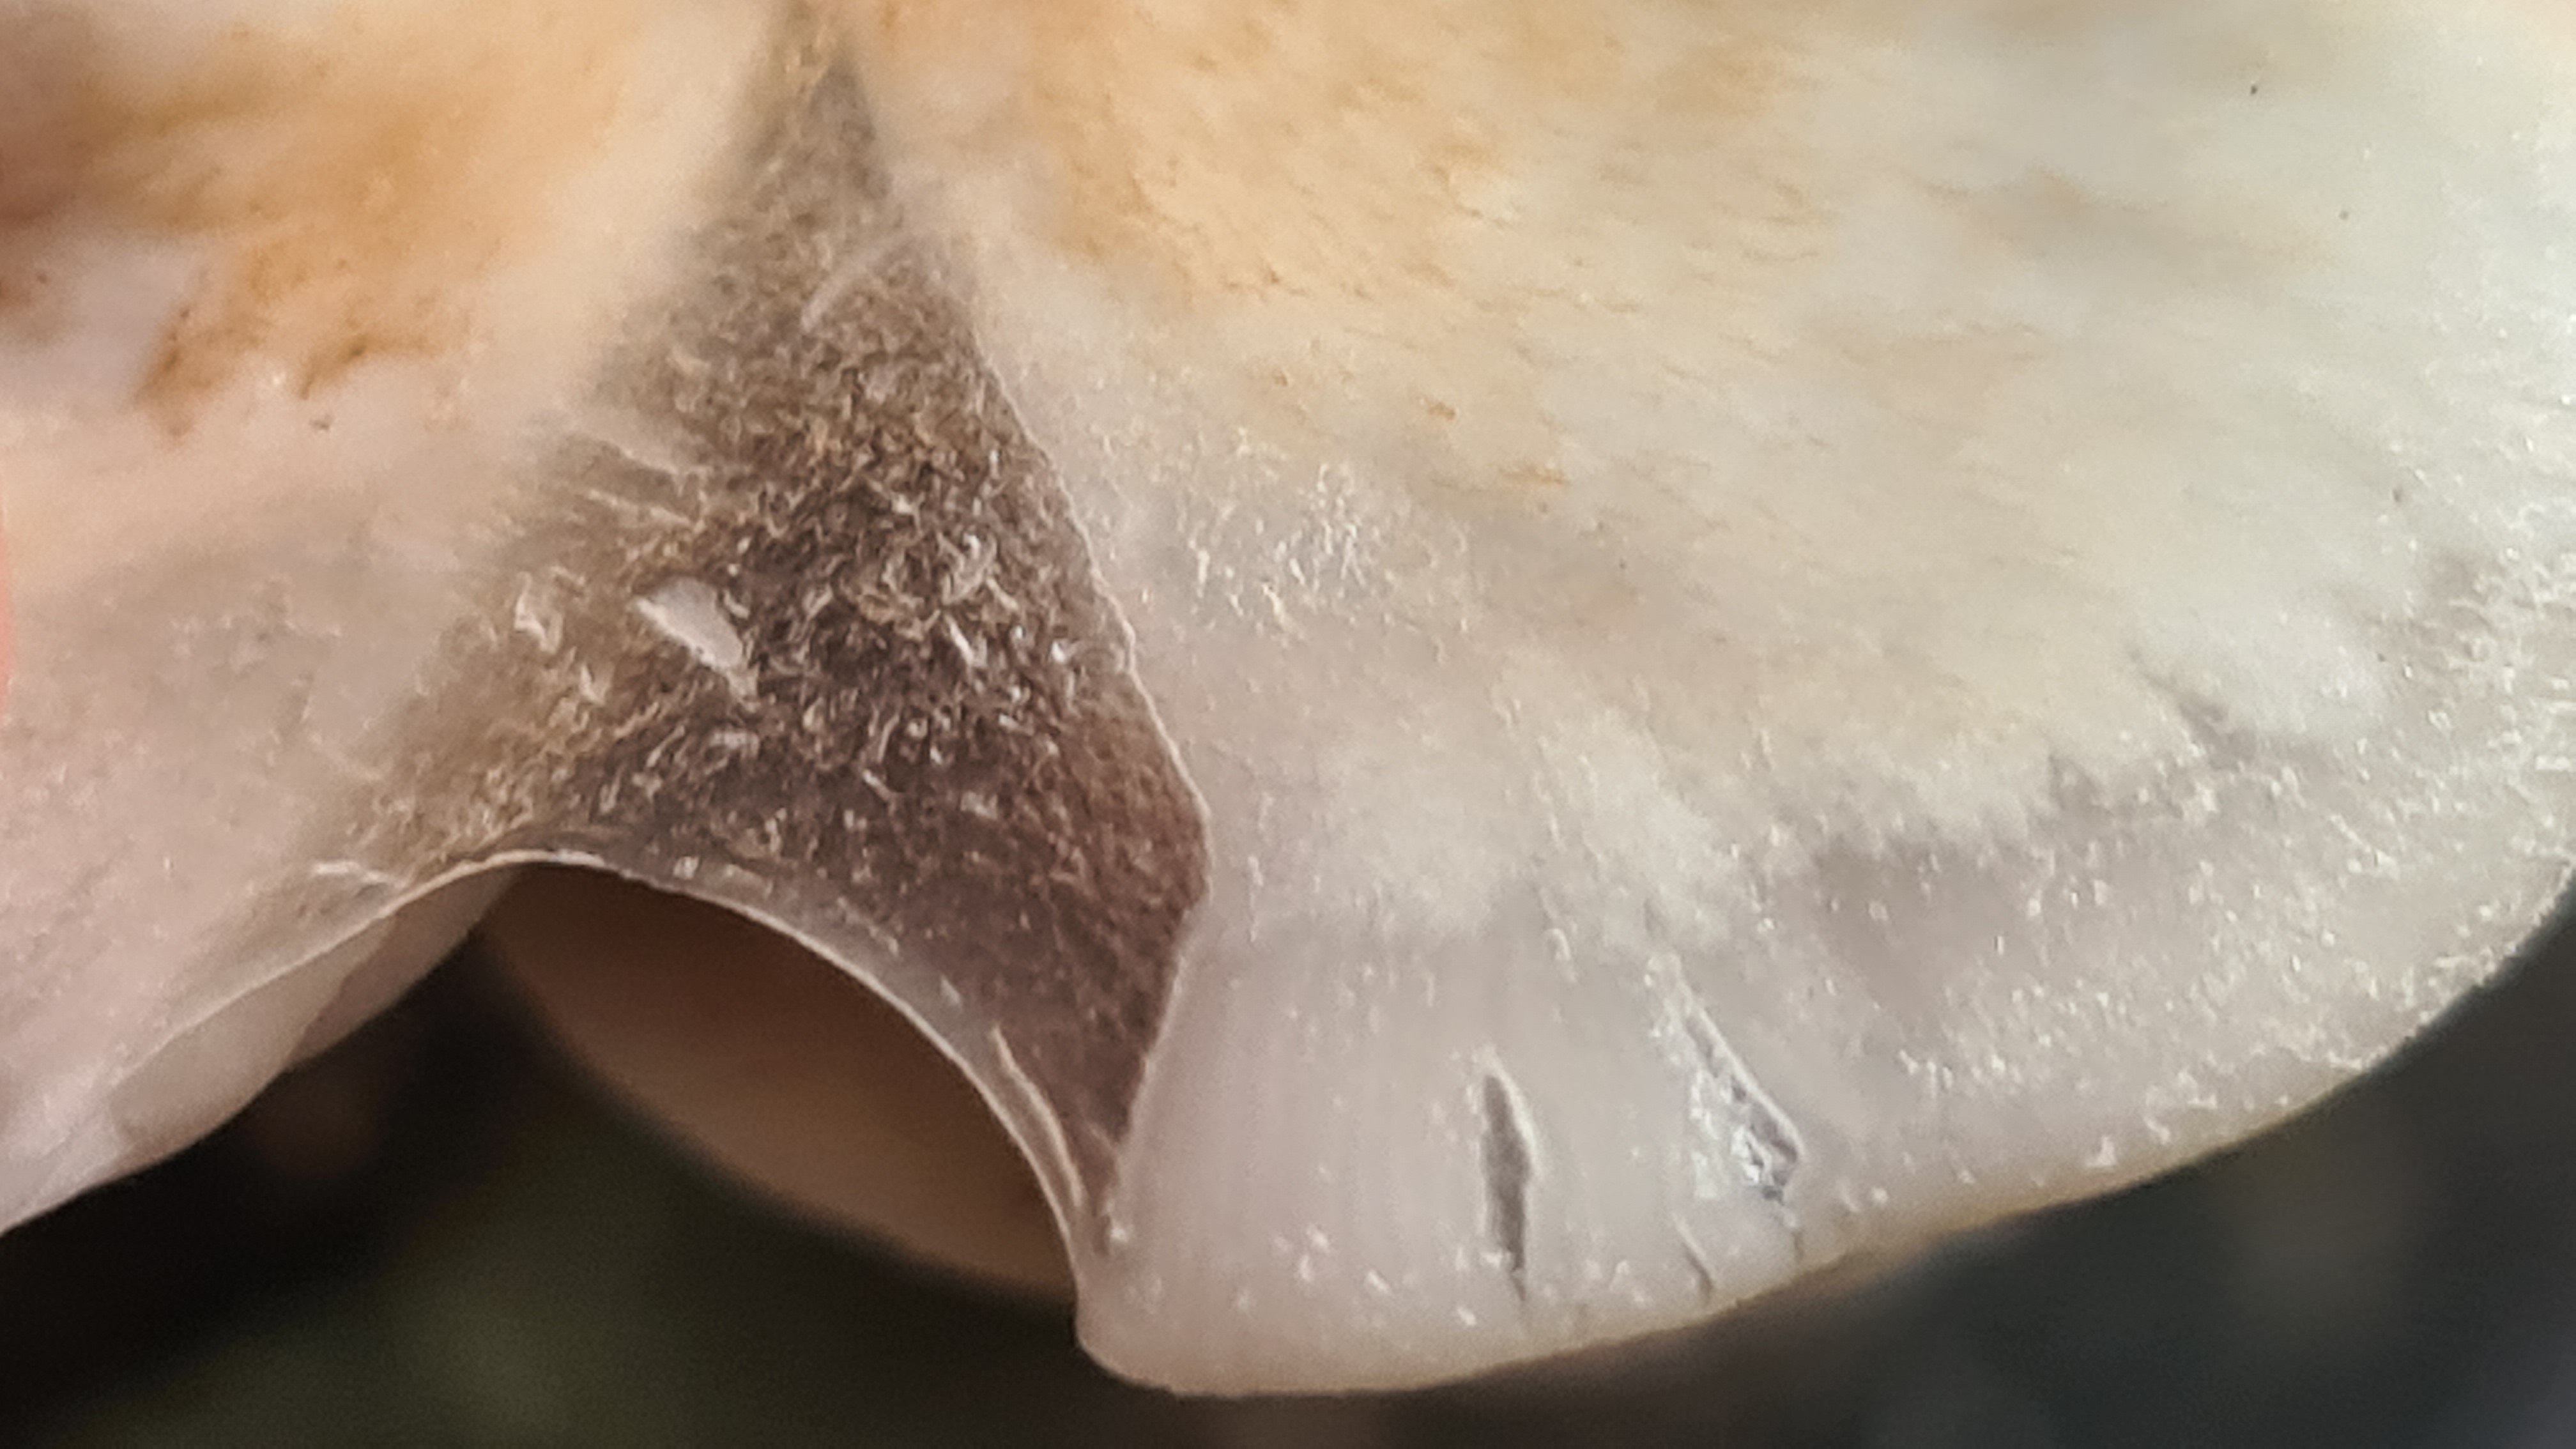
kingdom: Fungi
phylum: Basidiomycota
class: Agaricomycetes
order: Agaricales
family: Crepidotaceae
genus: Crepidotus
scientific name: Crepidotus mollis
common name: blød muslingesvamp
